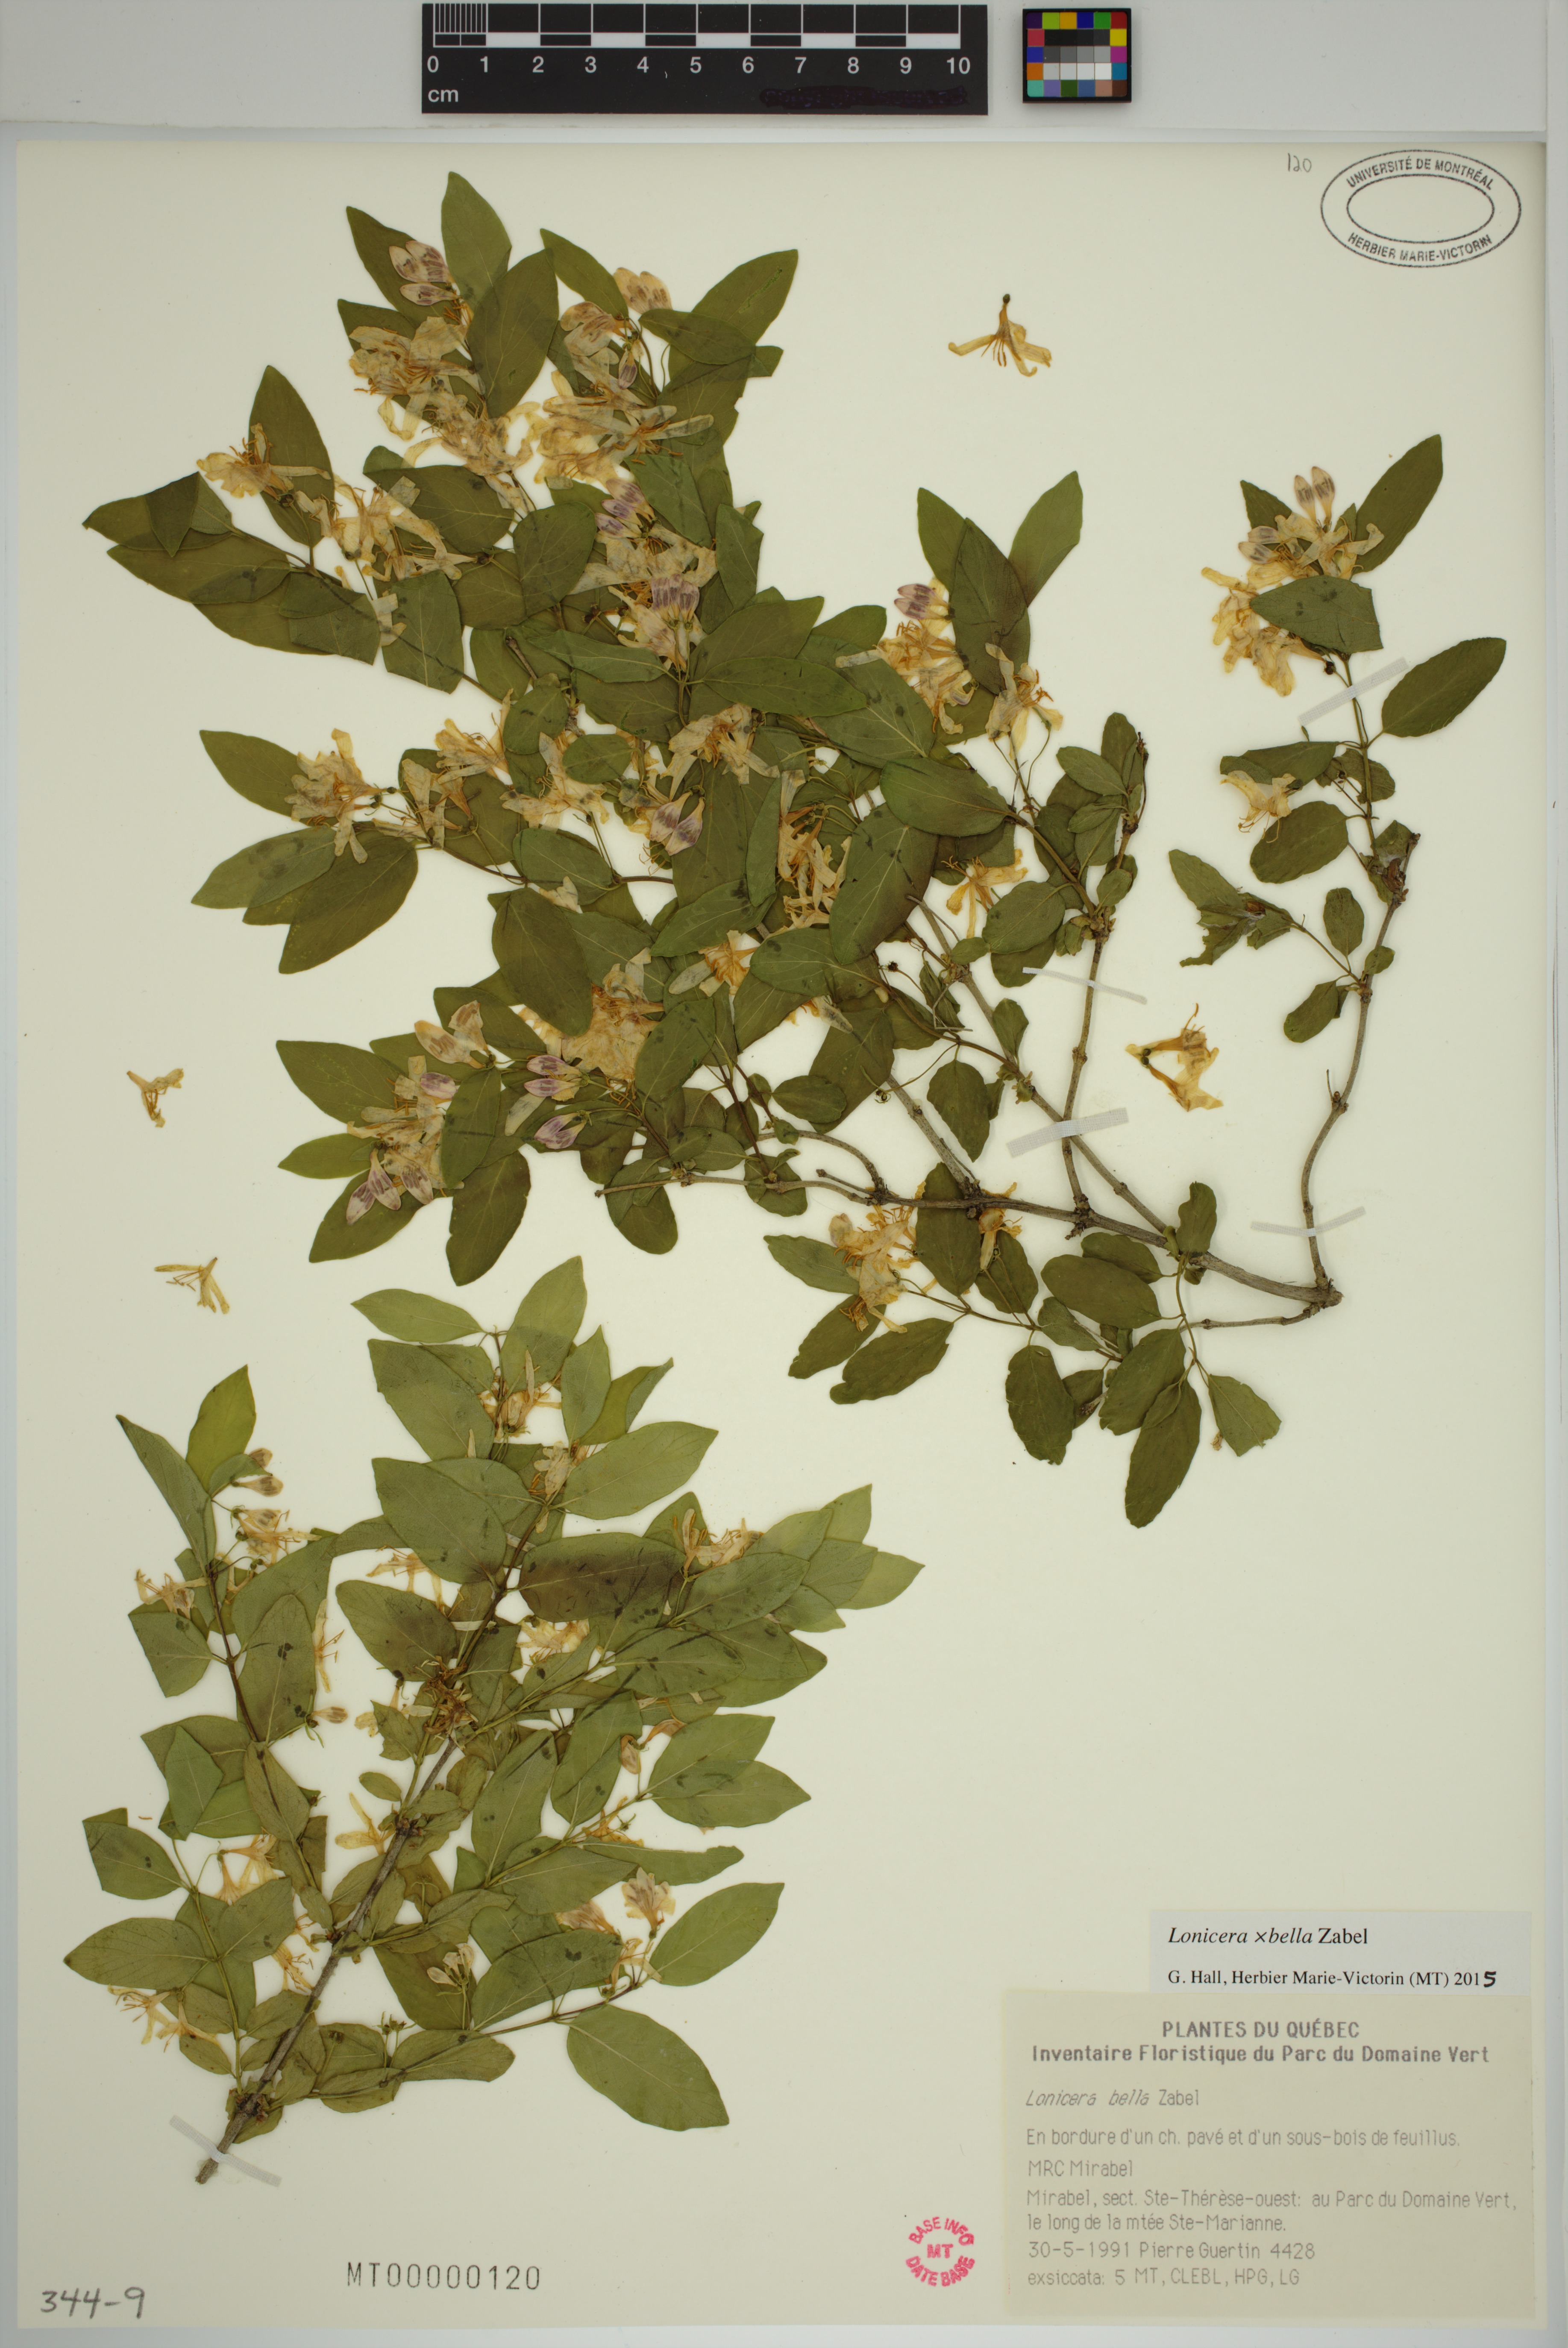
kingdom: Plantae
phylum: Tracheophyta
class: Magnoliopsida
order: Dipsacales
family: Caprifoliaceae
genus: Lonicera
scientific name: Lonicera bella
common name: Bell's honeysuckle
